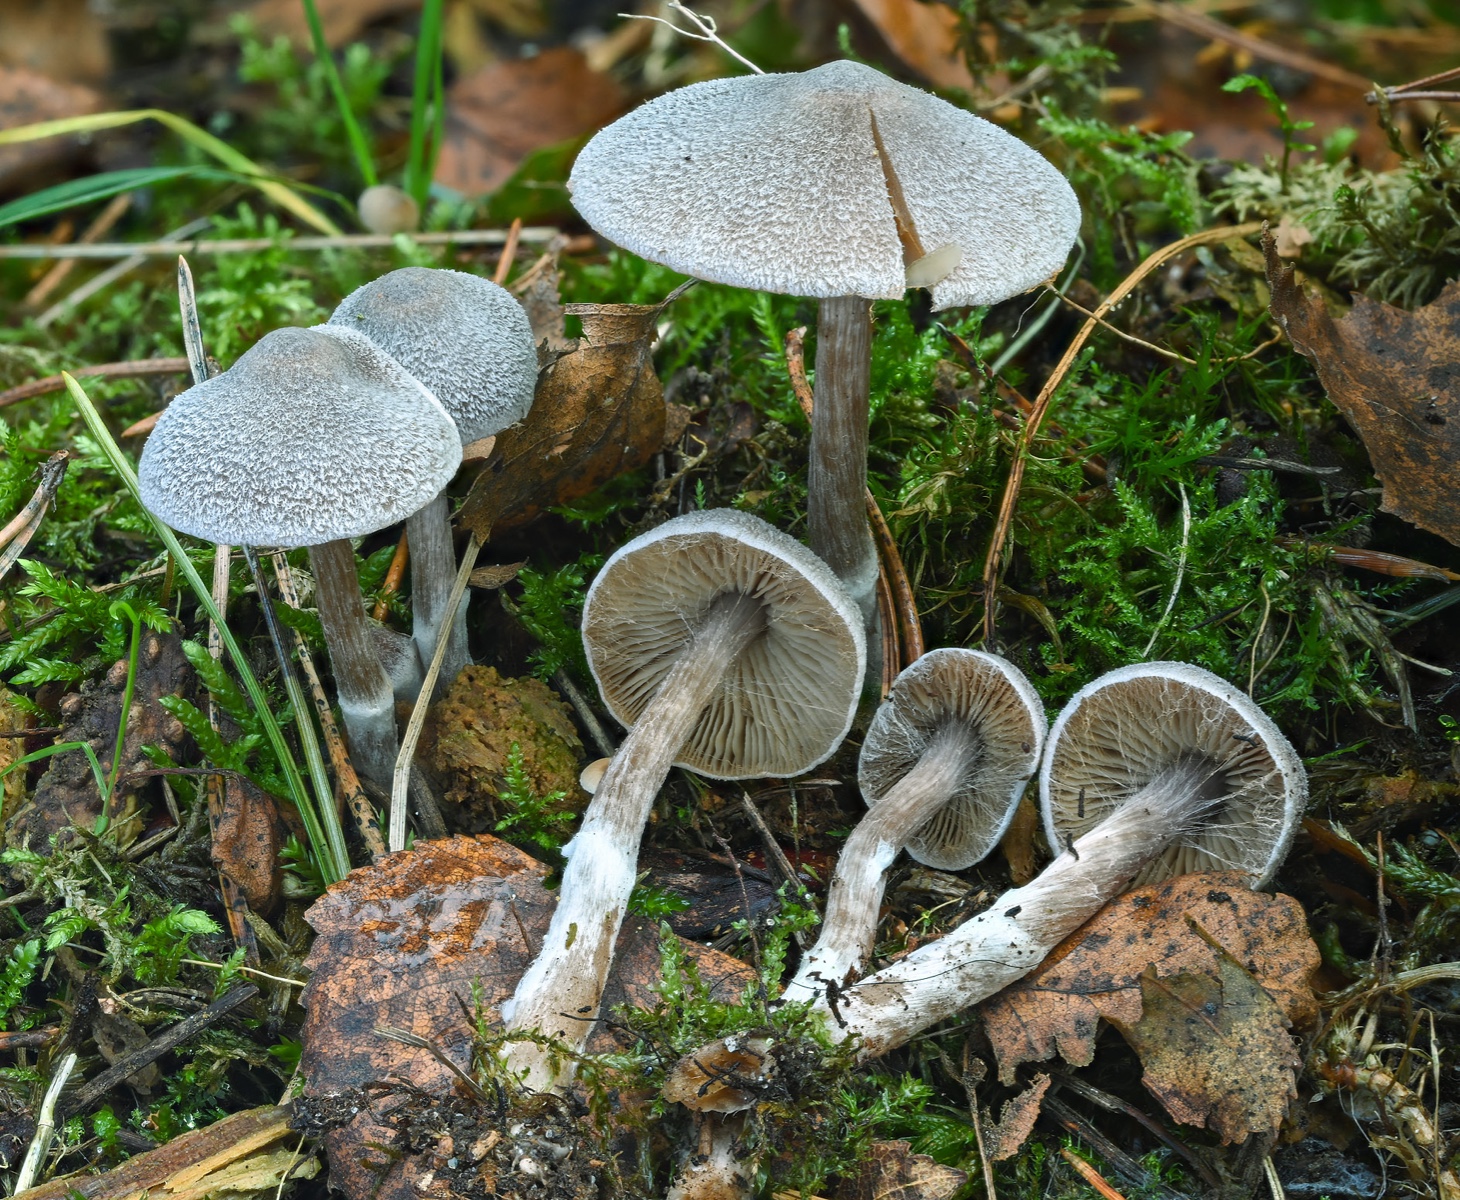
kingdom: Fungi
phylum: Basidiomycota
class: Agaricomycetes
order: Agaricales
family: Cortinariaceae
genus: Cortinarius
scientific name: Cortinarius hemitrichus
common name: hvidfnugget slørhat
